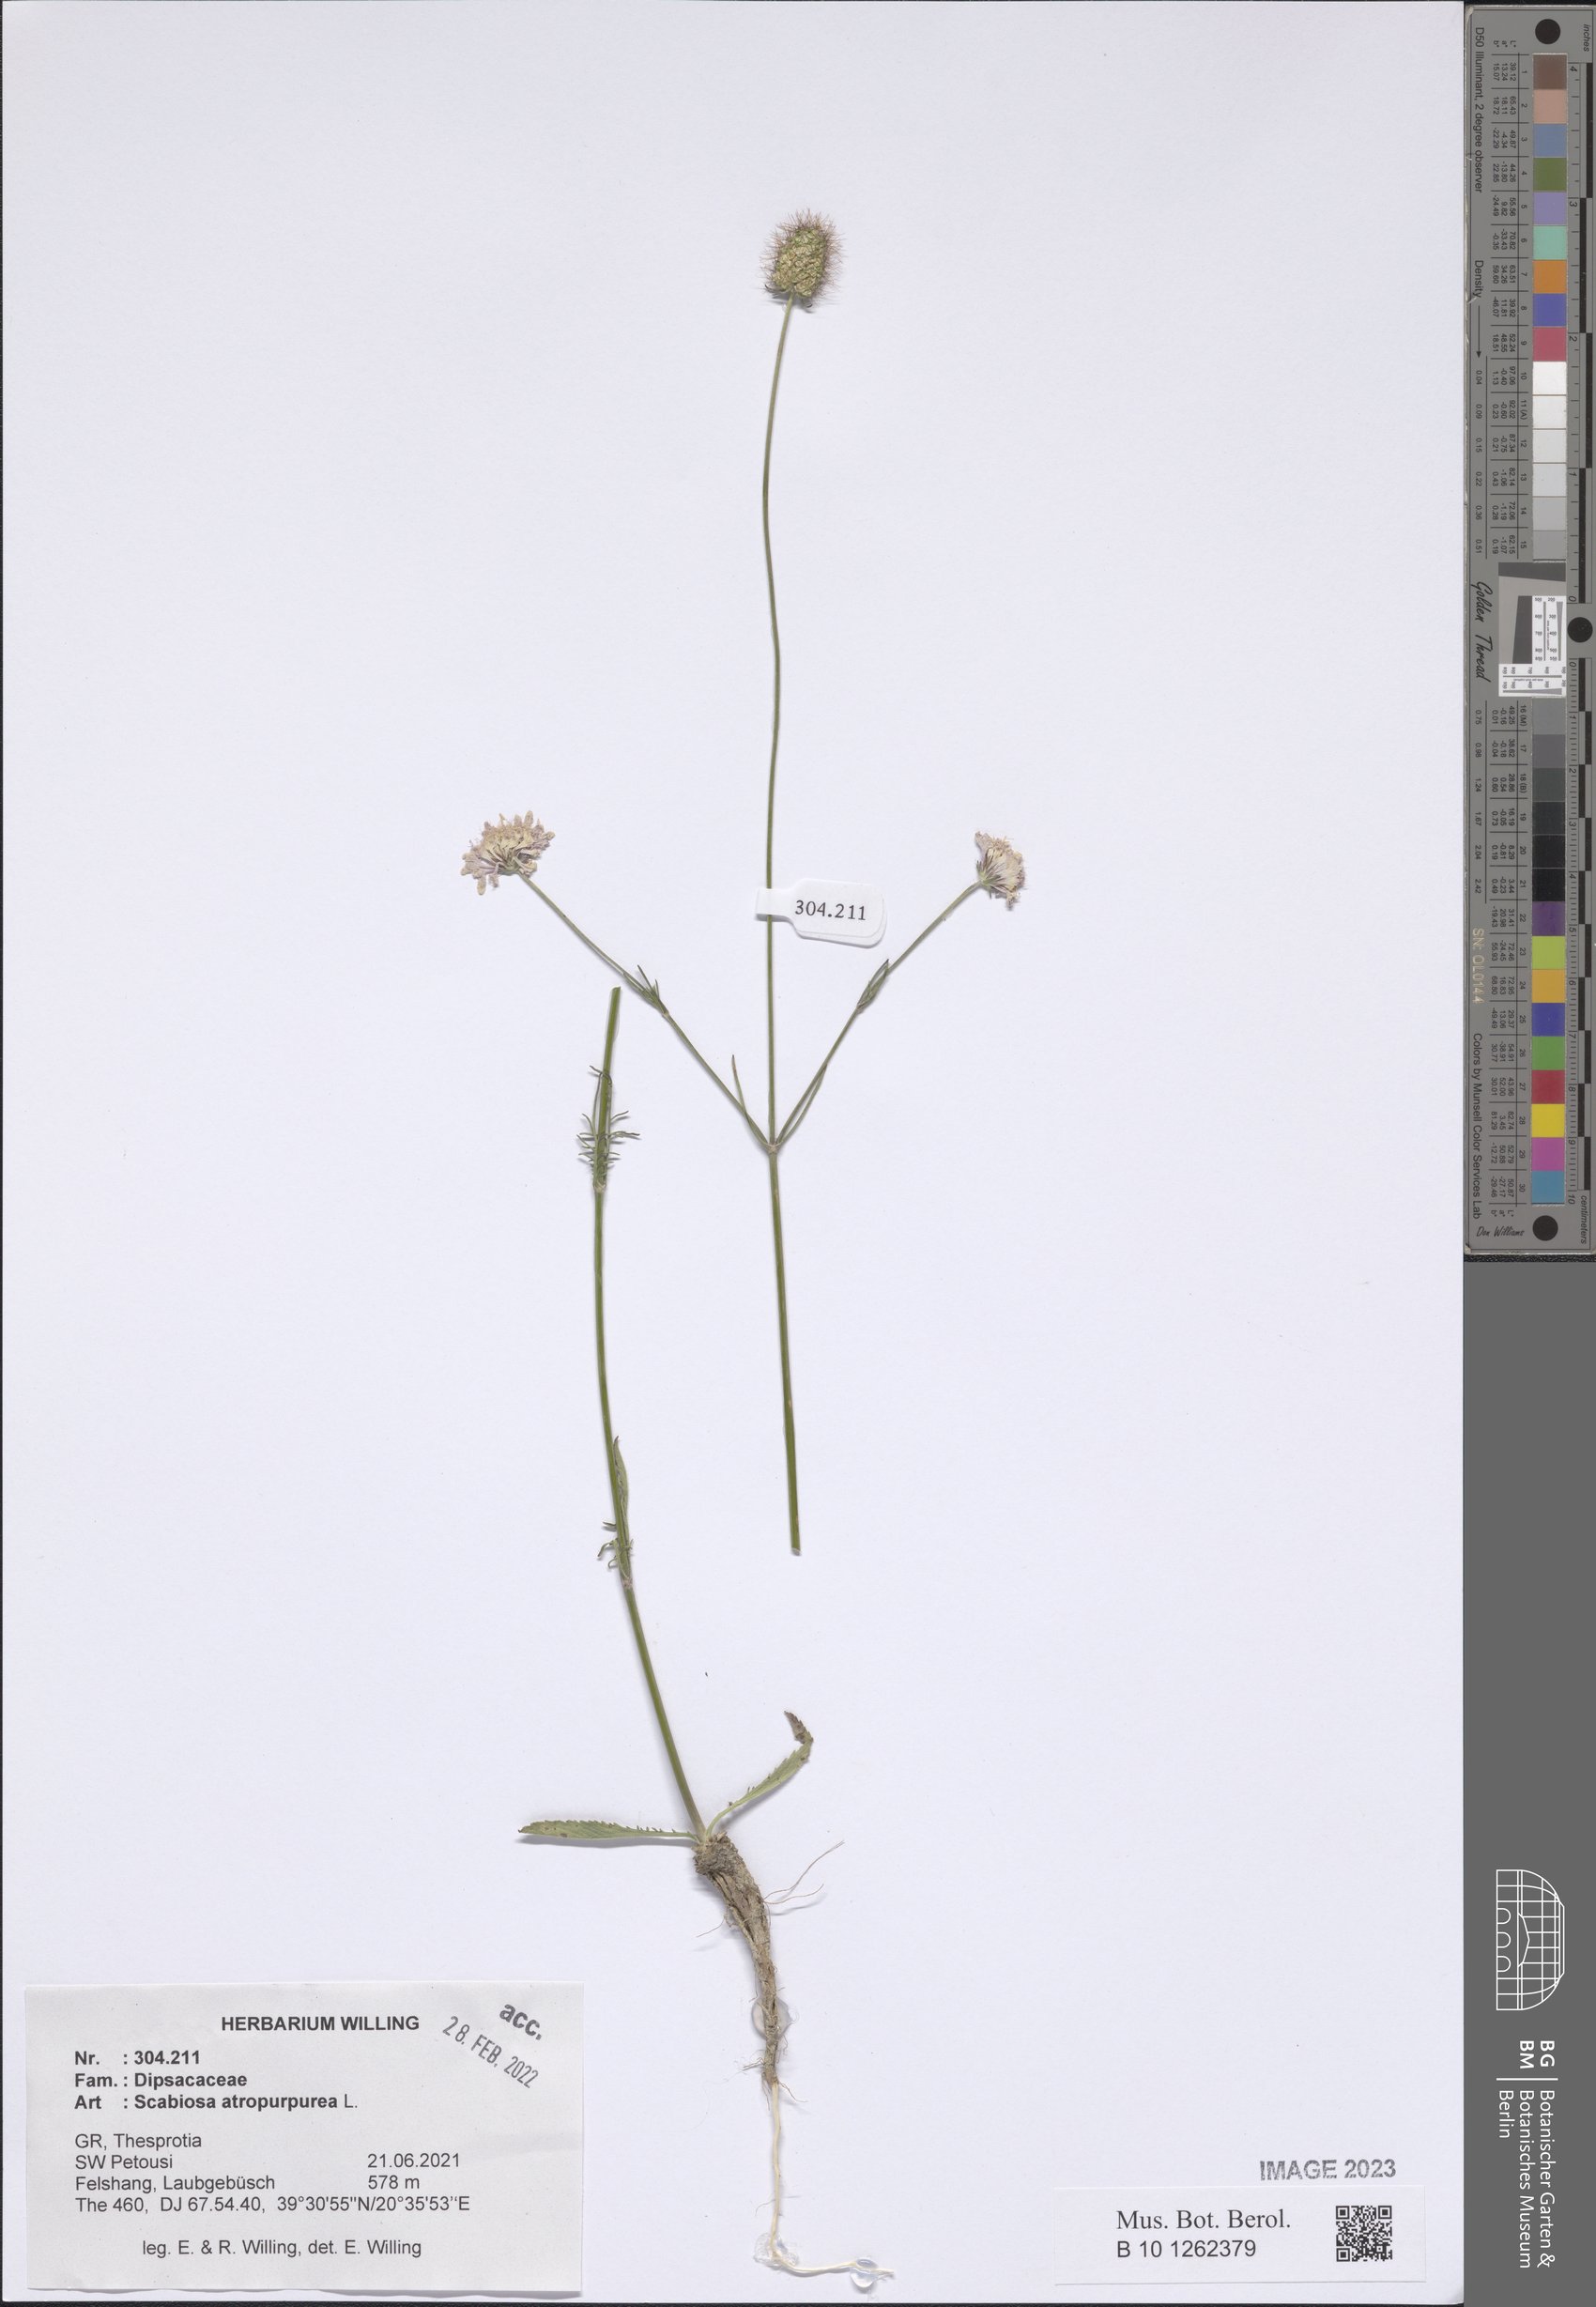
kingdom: Plantae
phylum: Tracheophyta
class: Magnoliopsida
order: Dipsacales
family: Caprifoliaceae
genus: Sixalix
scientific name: Sixalix atropurpurea
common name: Sweet scabious
